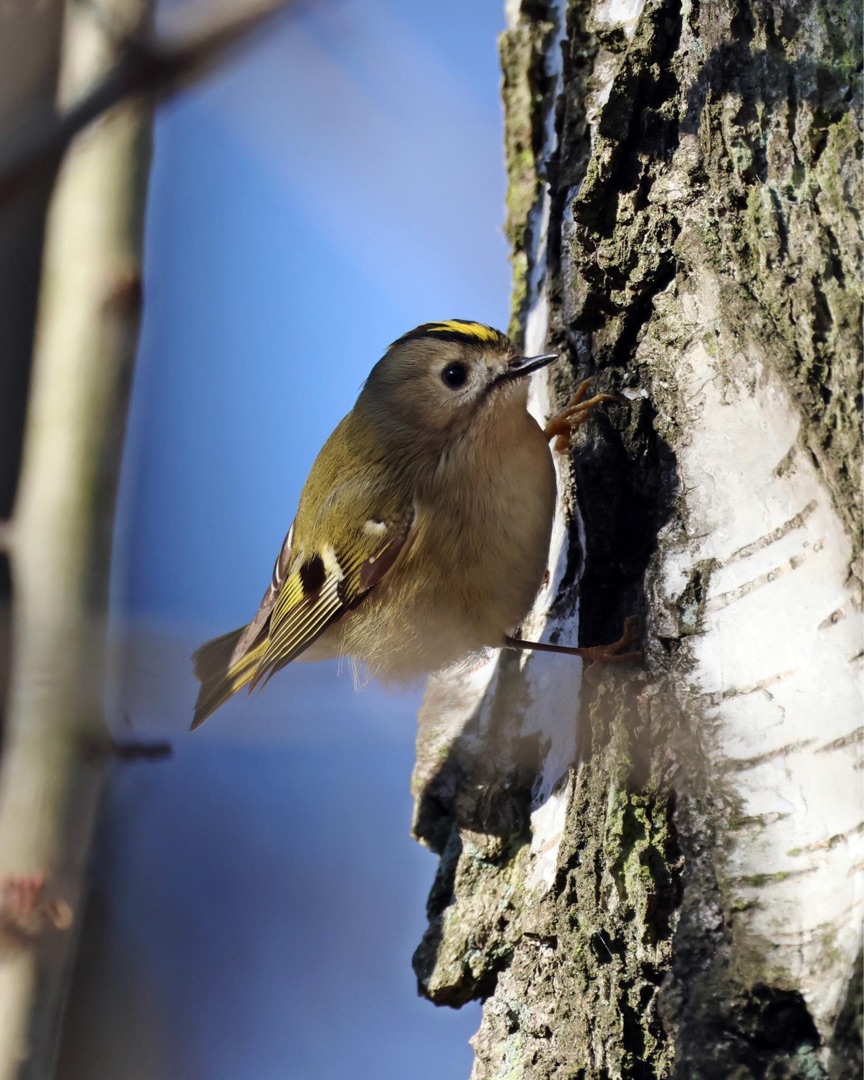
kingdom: Animalia
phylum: Chordata
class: Aves
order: Passeriformes
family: Regulidae
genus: Regulus
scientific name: Regulus regulus
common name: Fuglekonge
